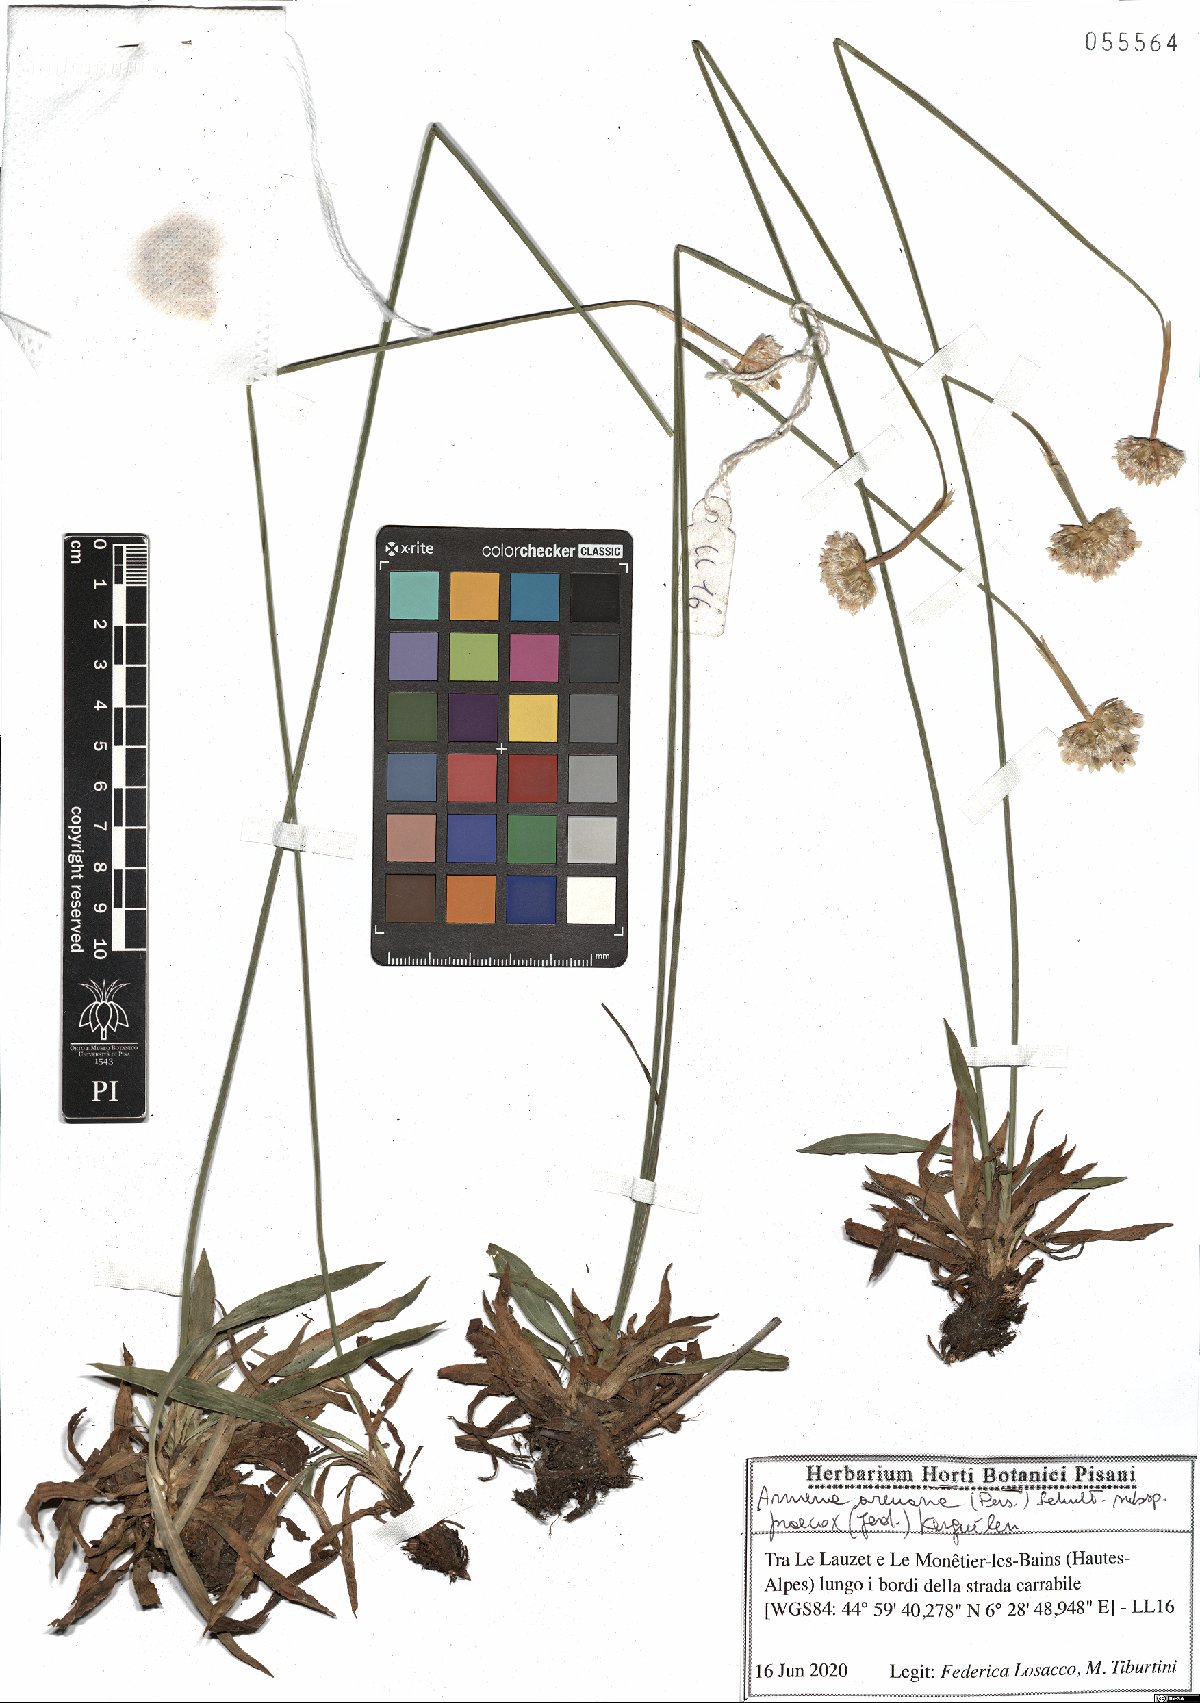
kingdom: Plantae
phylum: Tracheophyta
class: Magnoliopsida
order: Caryophyllales
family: Plumbaginaceae
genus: Armeria
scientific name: Armeria arenaria
